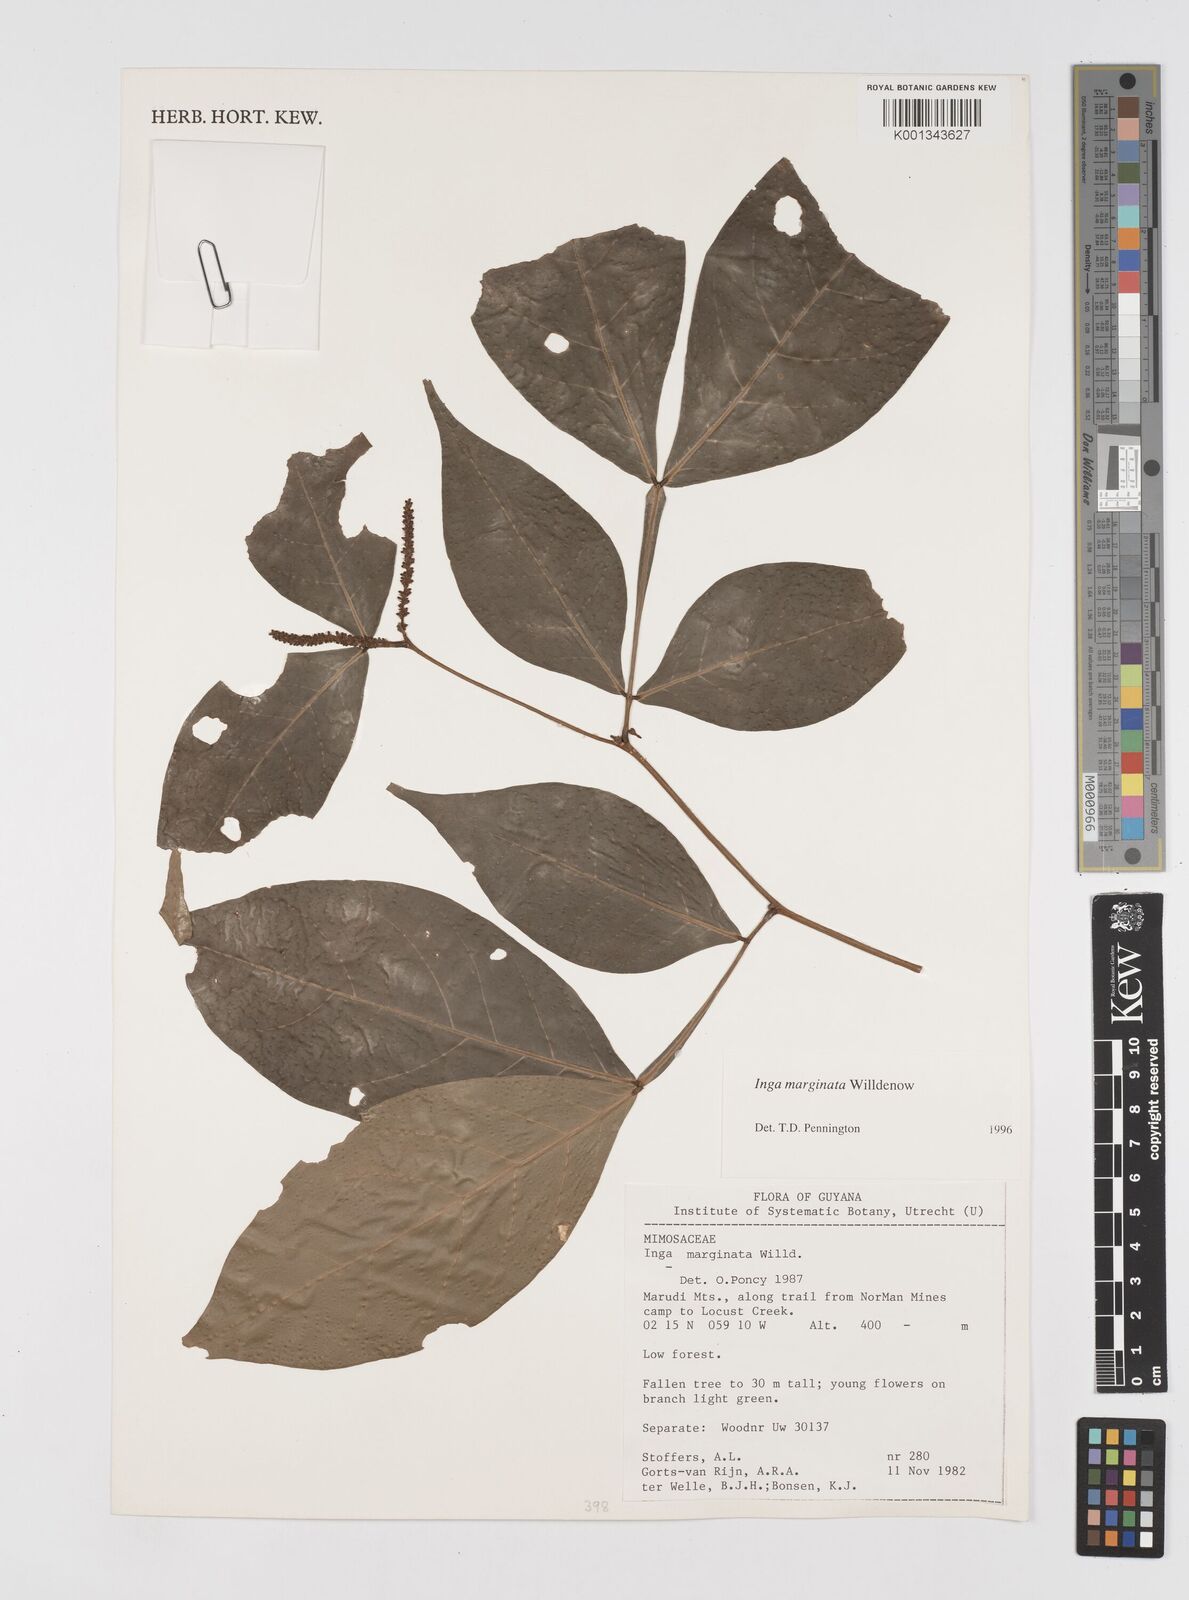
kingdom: Plantae
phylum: Tracheophyta
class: Magnoliopsida
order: Fabales
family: Fabaceae
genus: Inga
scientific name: Inga marginata
